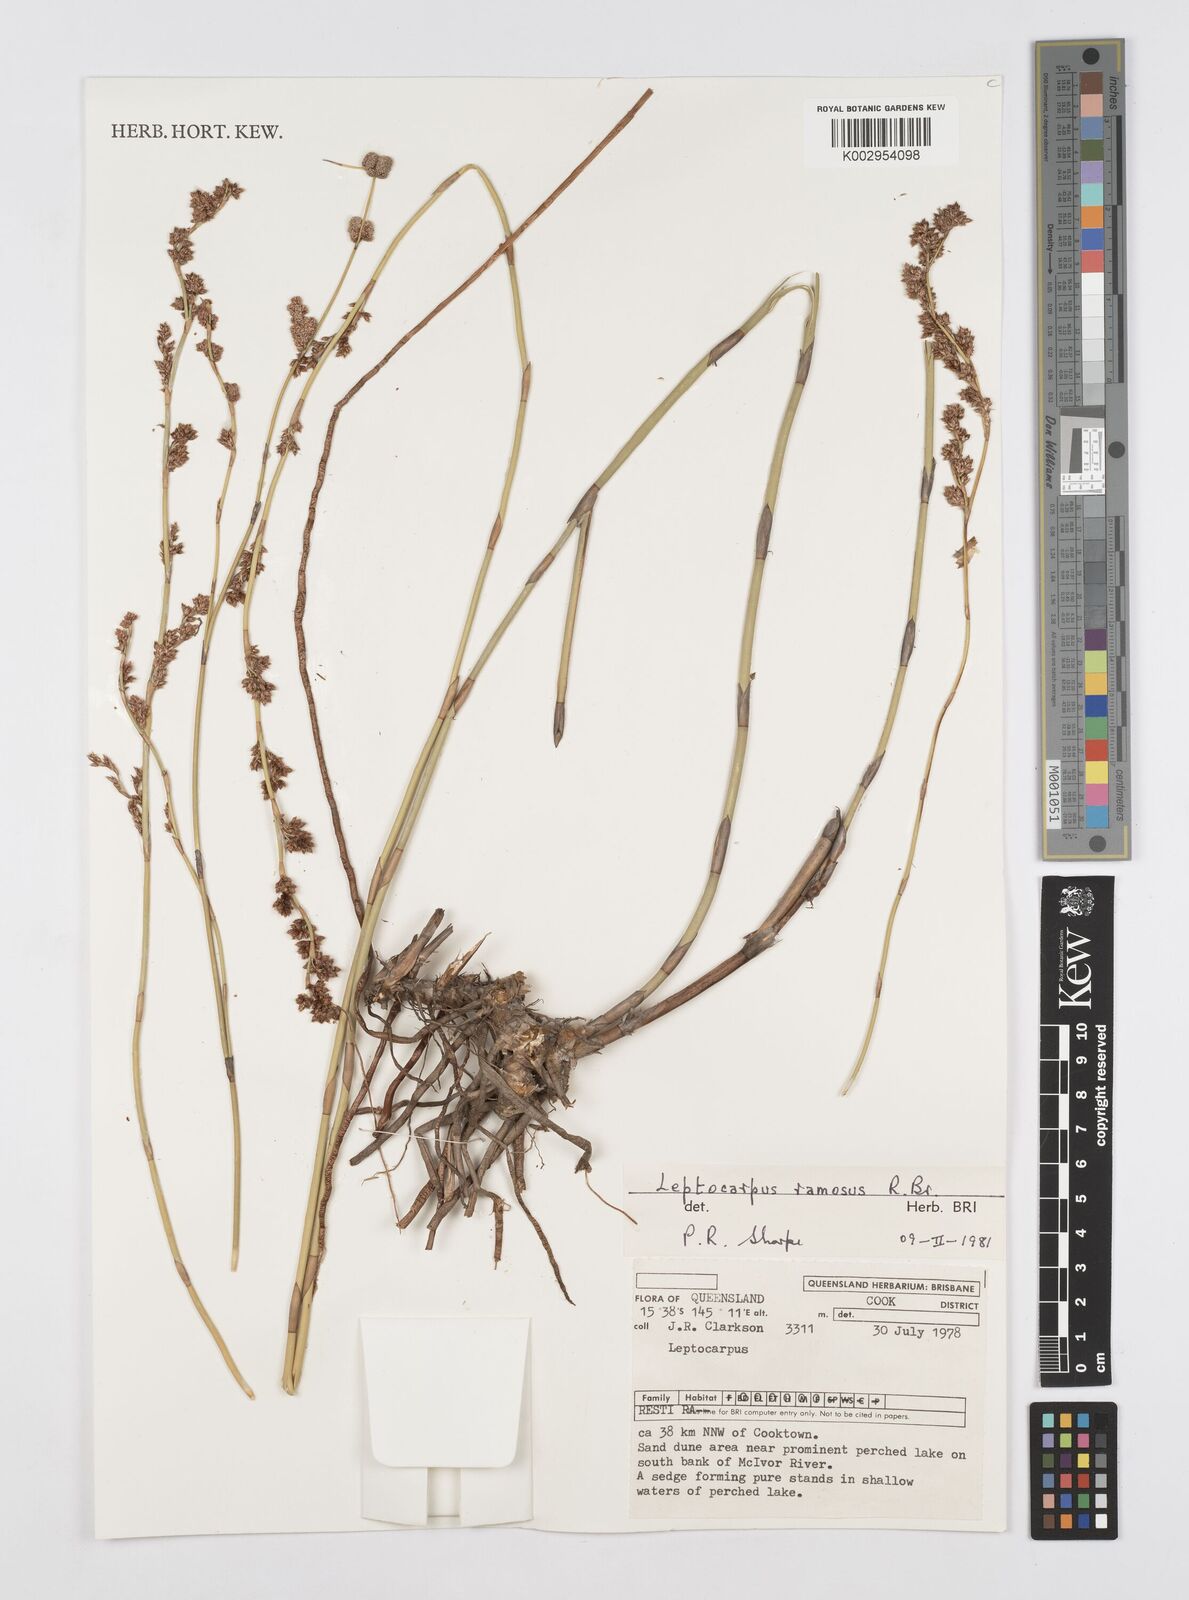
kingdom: Plantae
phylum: Tracheophyta
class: Liliopsida
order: Poales
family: Restionaceae
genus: Dapsilanthus
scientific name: Dapsilanthus ramosus
